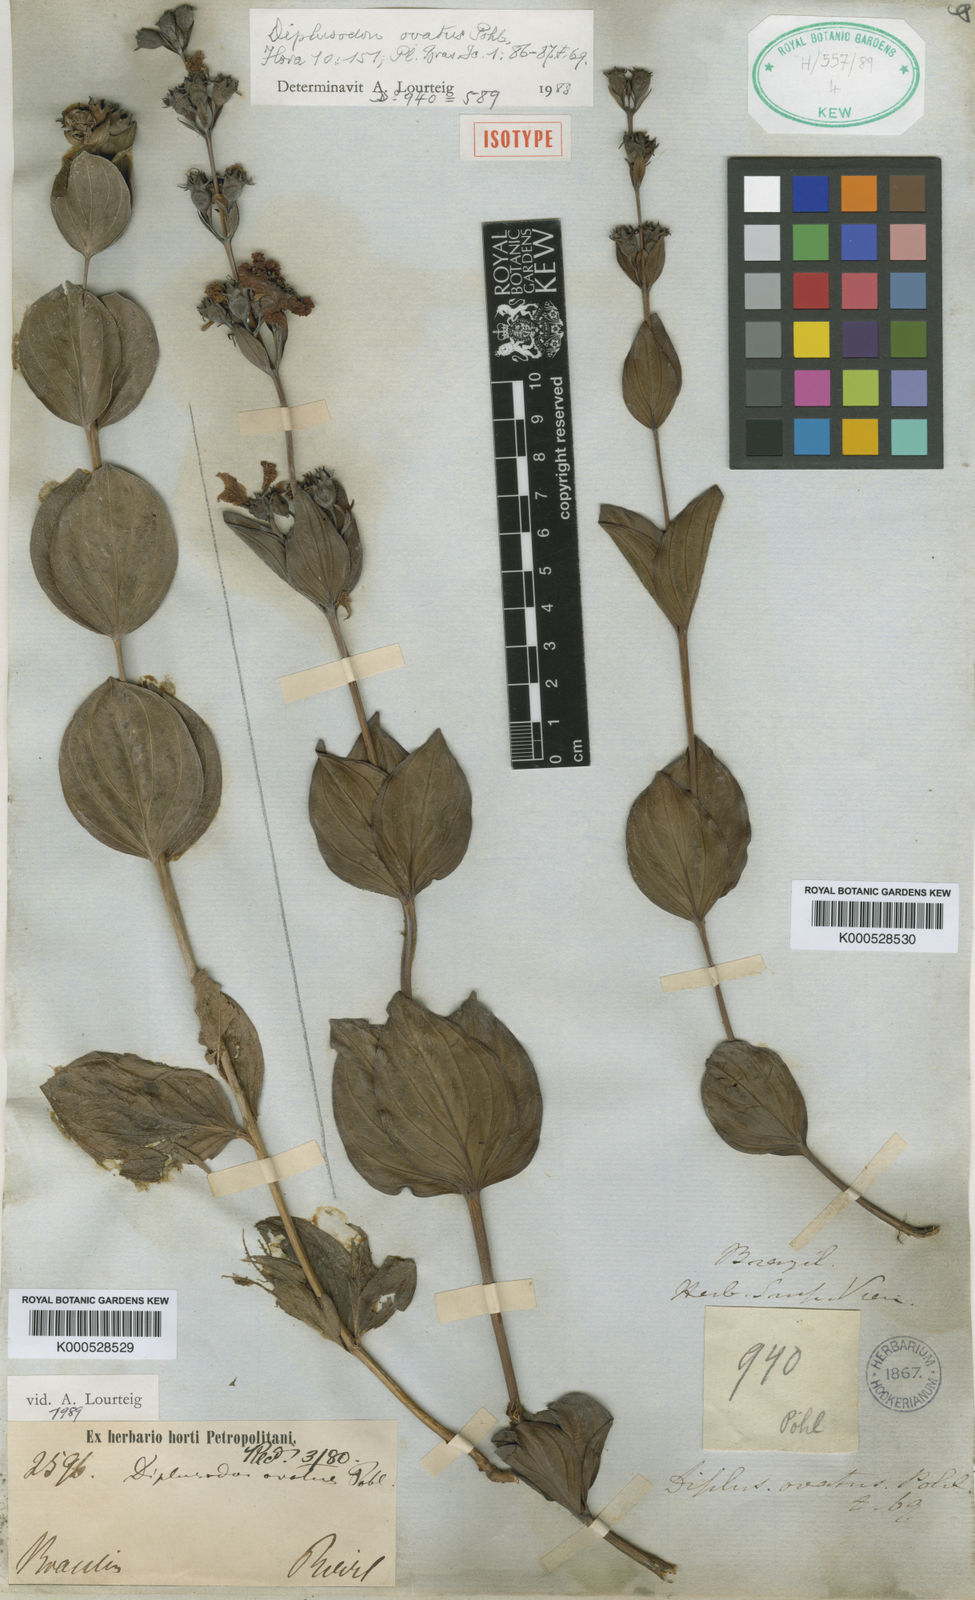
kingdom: Plantae
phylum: Tracheophyta
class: Magnoliopsida
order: Myrtales
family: Lythraceae
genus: Diplusodon
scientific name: Diplusodon ovatus
